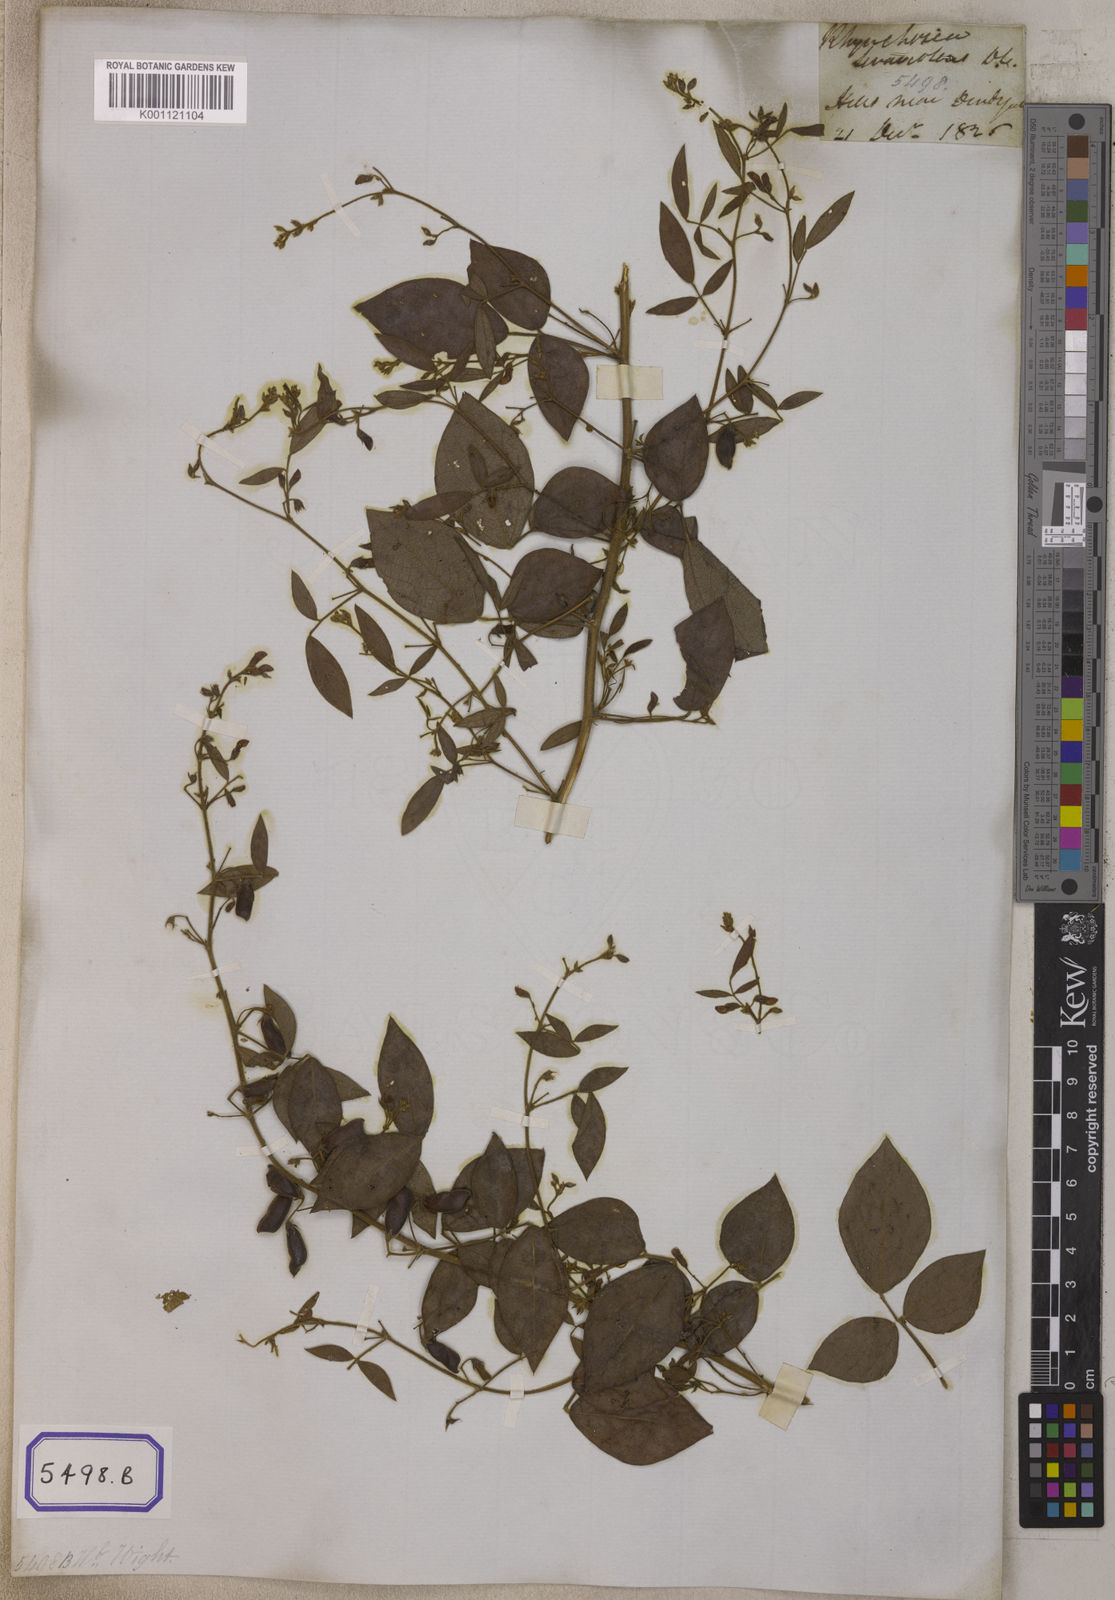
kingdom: Plantae
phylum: Tracheophyta
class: Magnoliopsida
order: Fabales
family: Fabaceae
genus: Rhynchosia
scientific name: Rhynchosia cana
